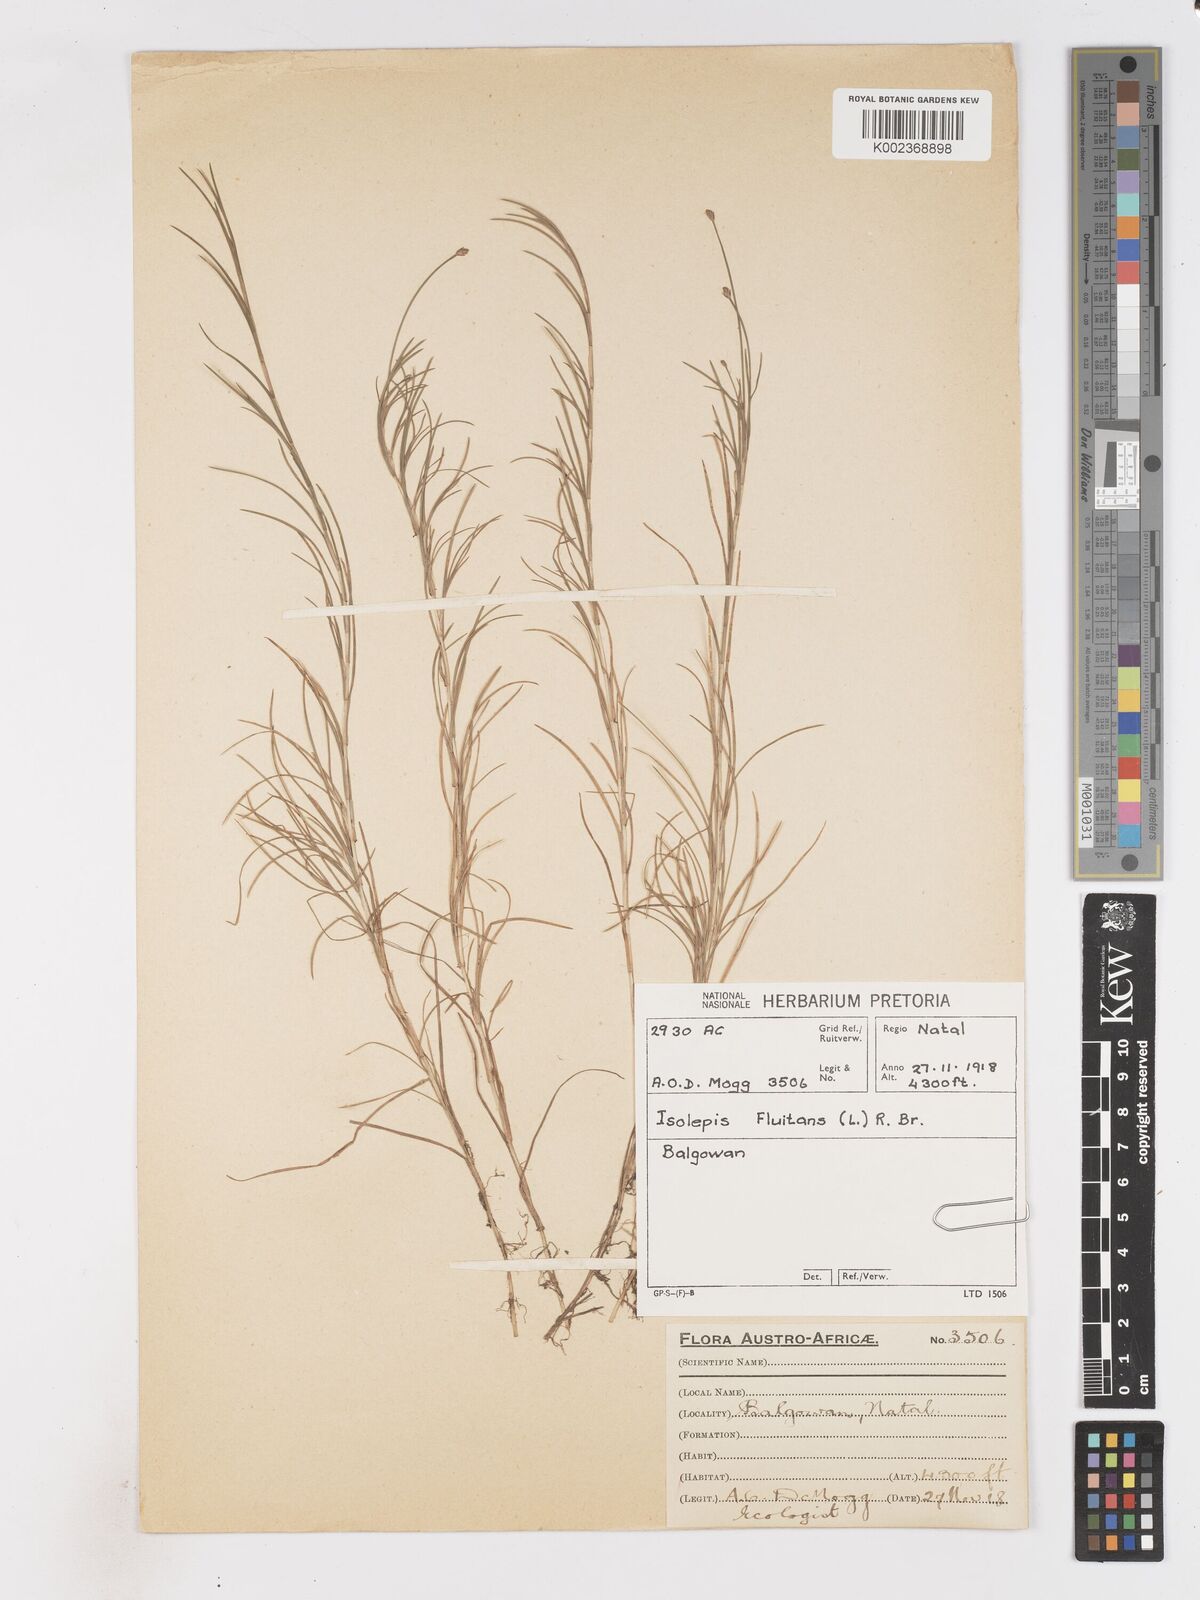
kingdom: Plantae
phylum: Tracheophyta
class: Liliopsida
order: Poales
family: Cyperaceae
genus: Isolepis
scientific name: Isolepis fluitans
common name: Floating club-rush
